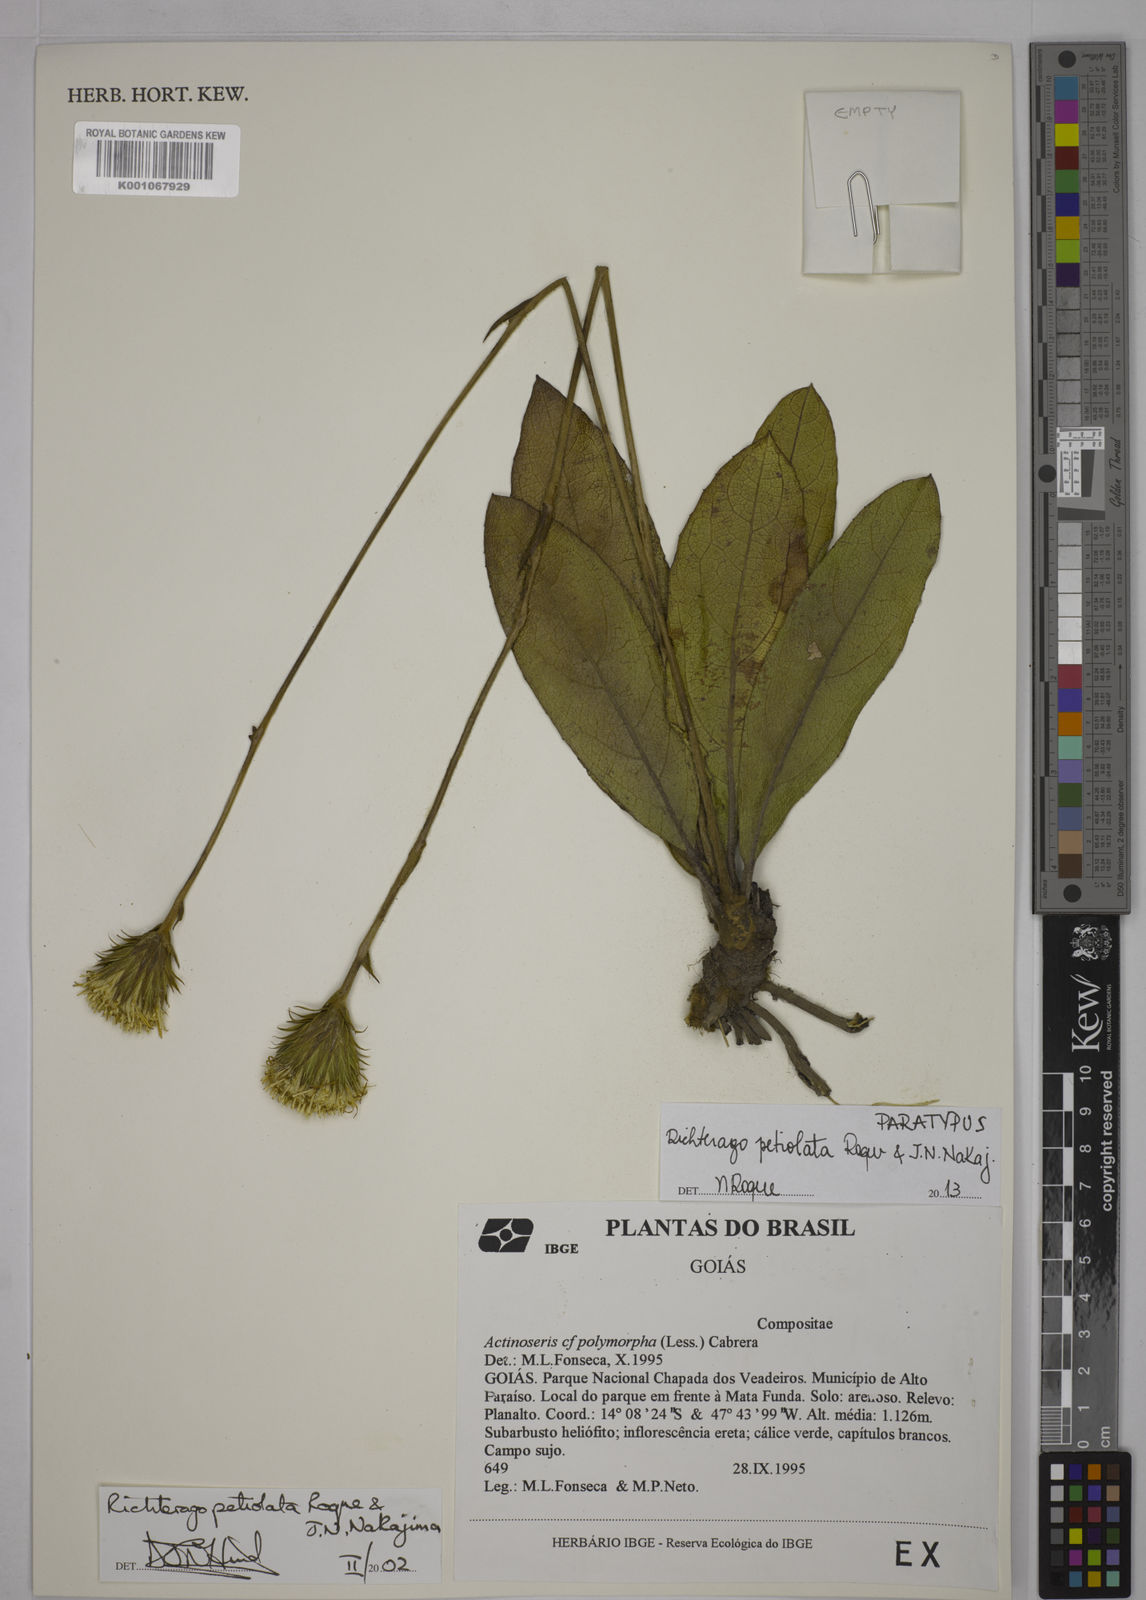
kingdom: Plantae
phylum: Tracheophyta
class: Magnoliopsida
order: Asterales
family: Asteraceae
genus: Richterago
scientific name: Richterago petiolata
